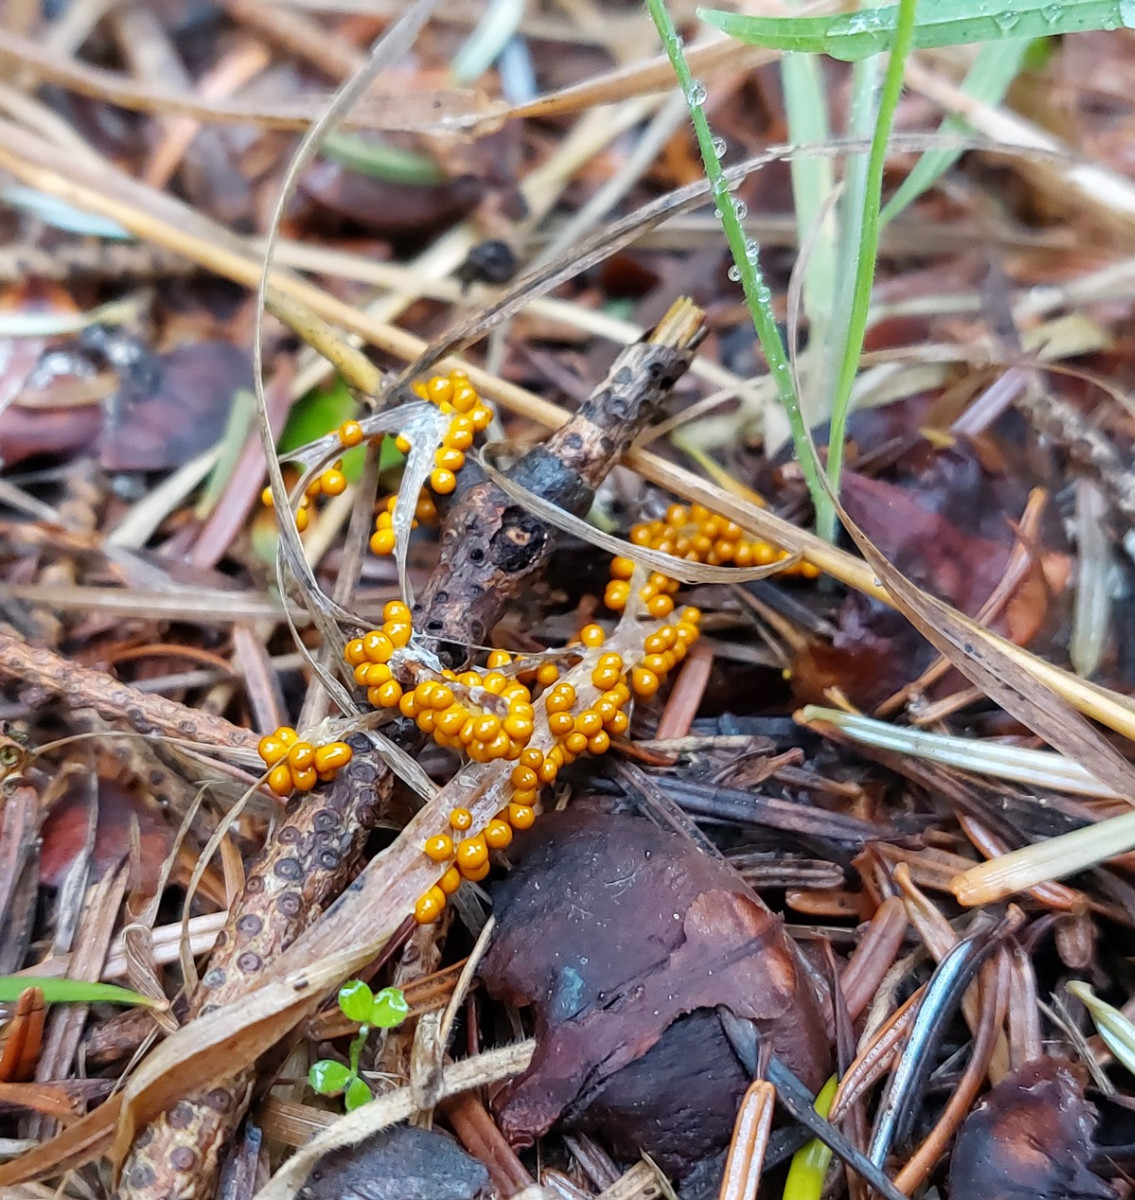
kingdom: Protozoa
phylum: Mycetozoa
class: Myxomycetes
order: Physarales
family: Physaraceae
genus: Leocarpus
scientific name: Leocarpus fragilis
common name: poleret glatfrø
